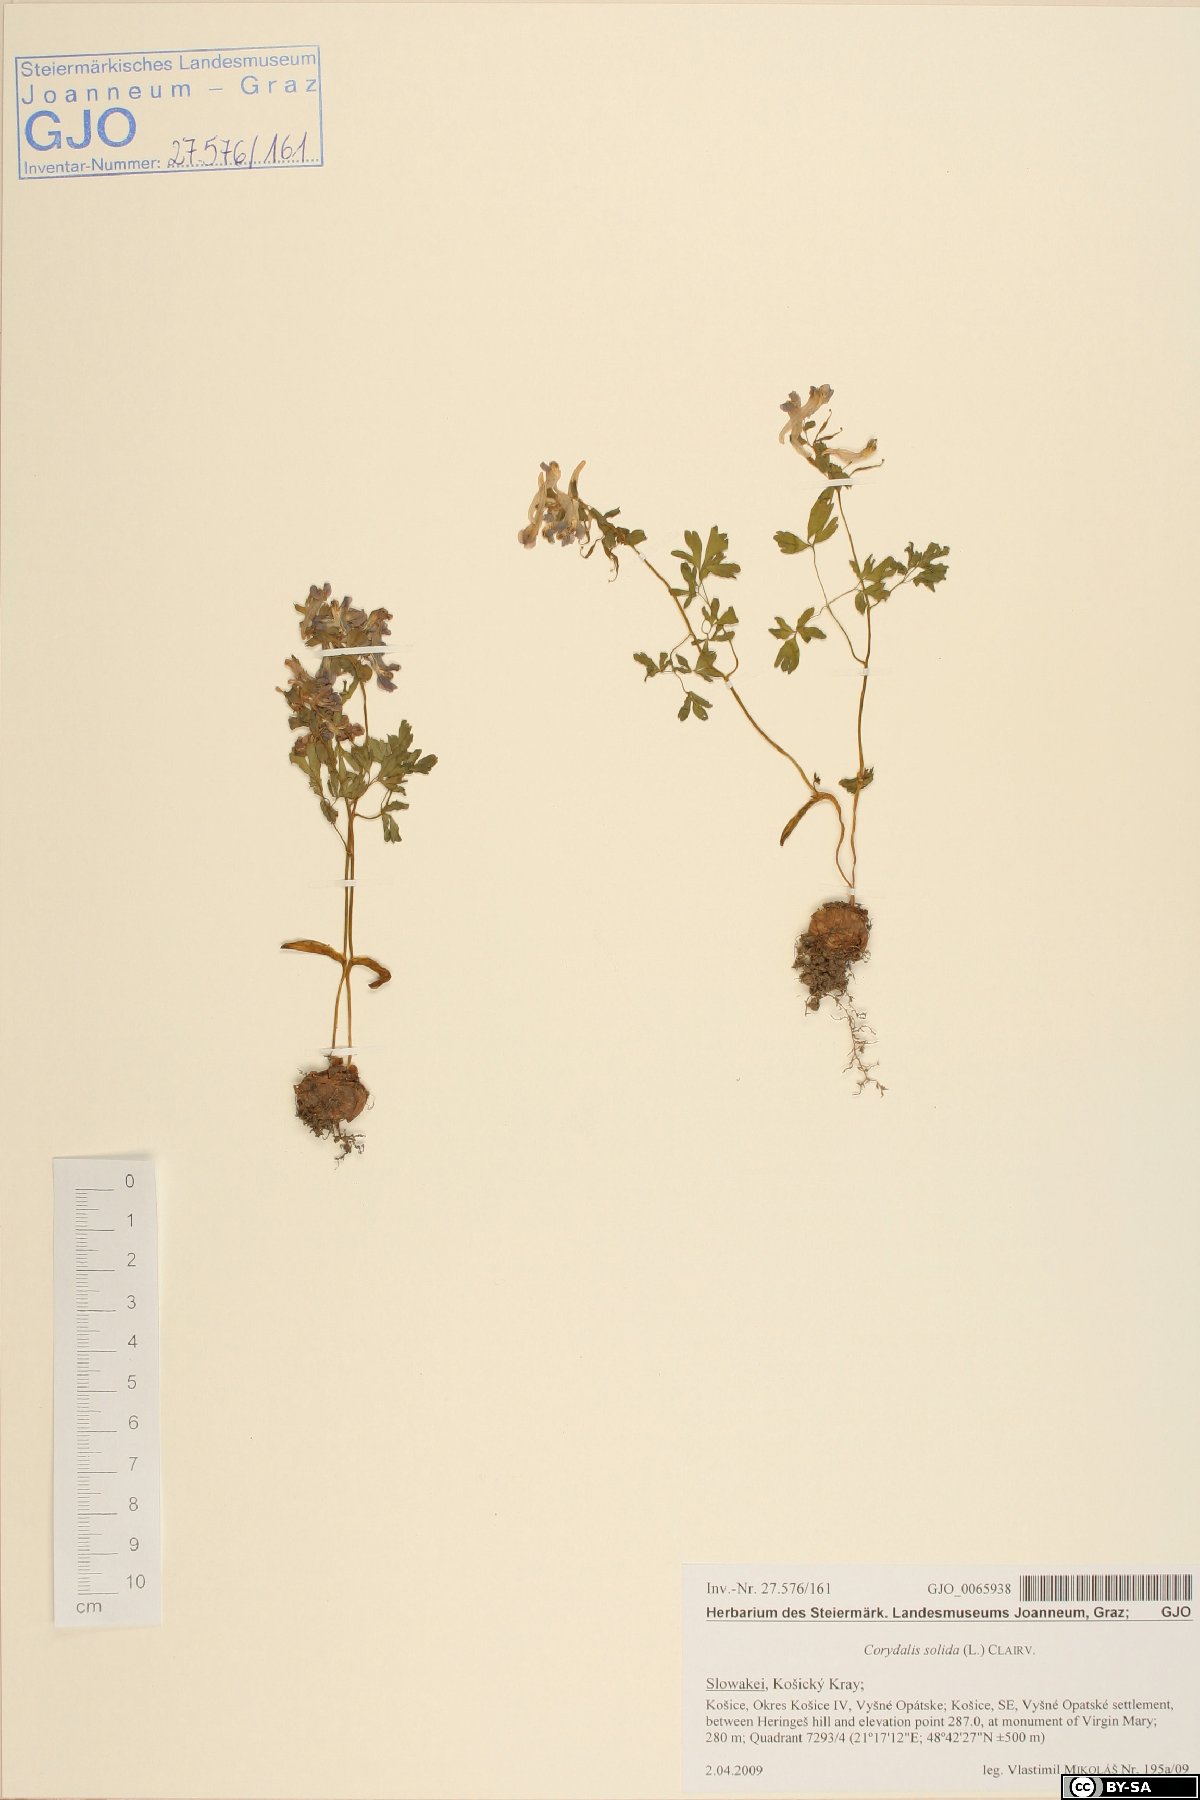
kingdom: Plantae
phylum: Tracheophyta
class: Magnoliopsida
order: Ranunculales
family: Papaveraceae
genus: Corydalis
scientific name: Corydalis solida
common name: Bird-in-a-bush
